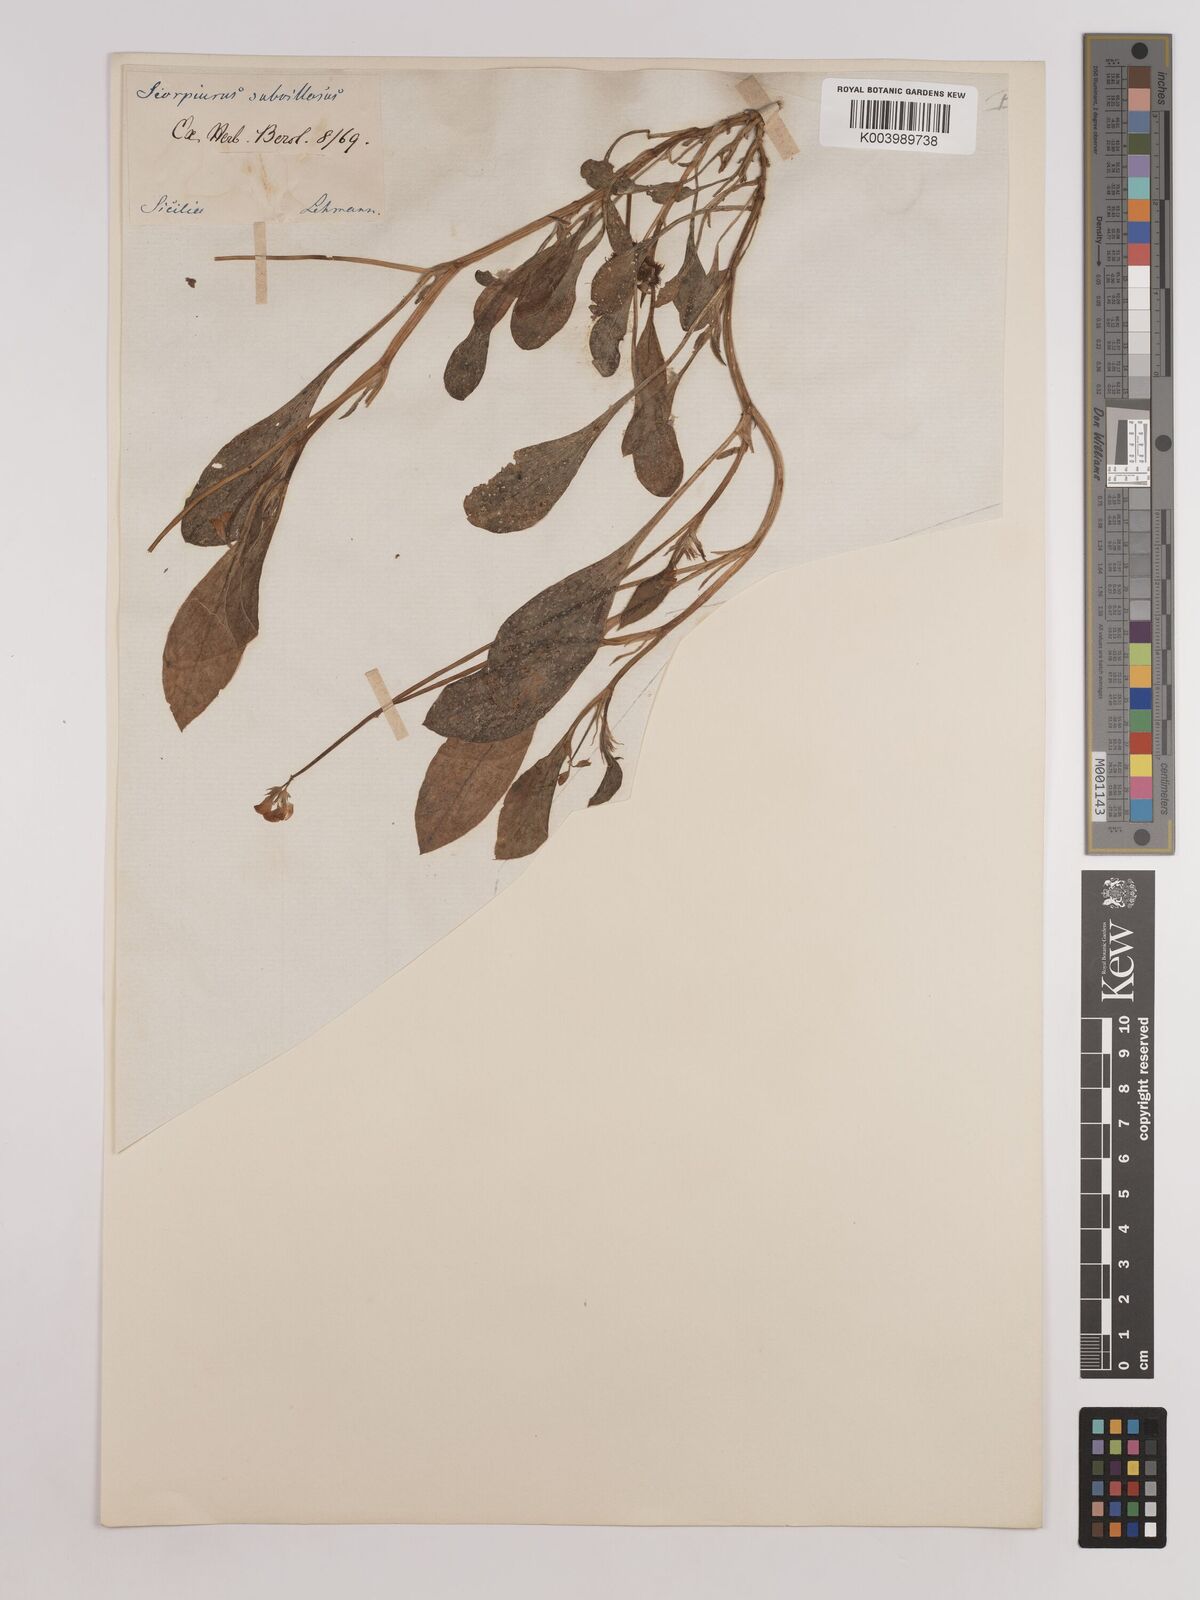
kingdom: Plantae
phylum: Tracheophyta
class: Magnoliopsida
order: Fabales
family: Fabaceae
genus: Scorpiurus
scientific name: Scorpiurus muricatus
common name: Caterpillar-plant
